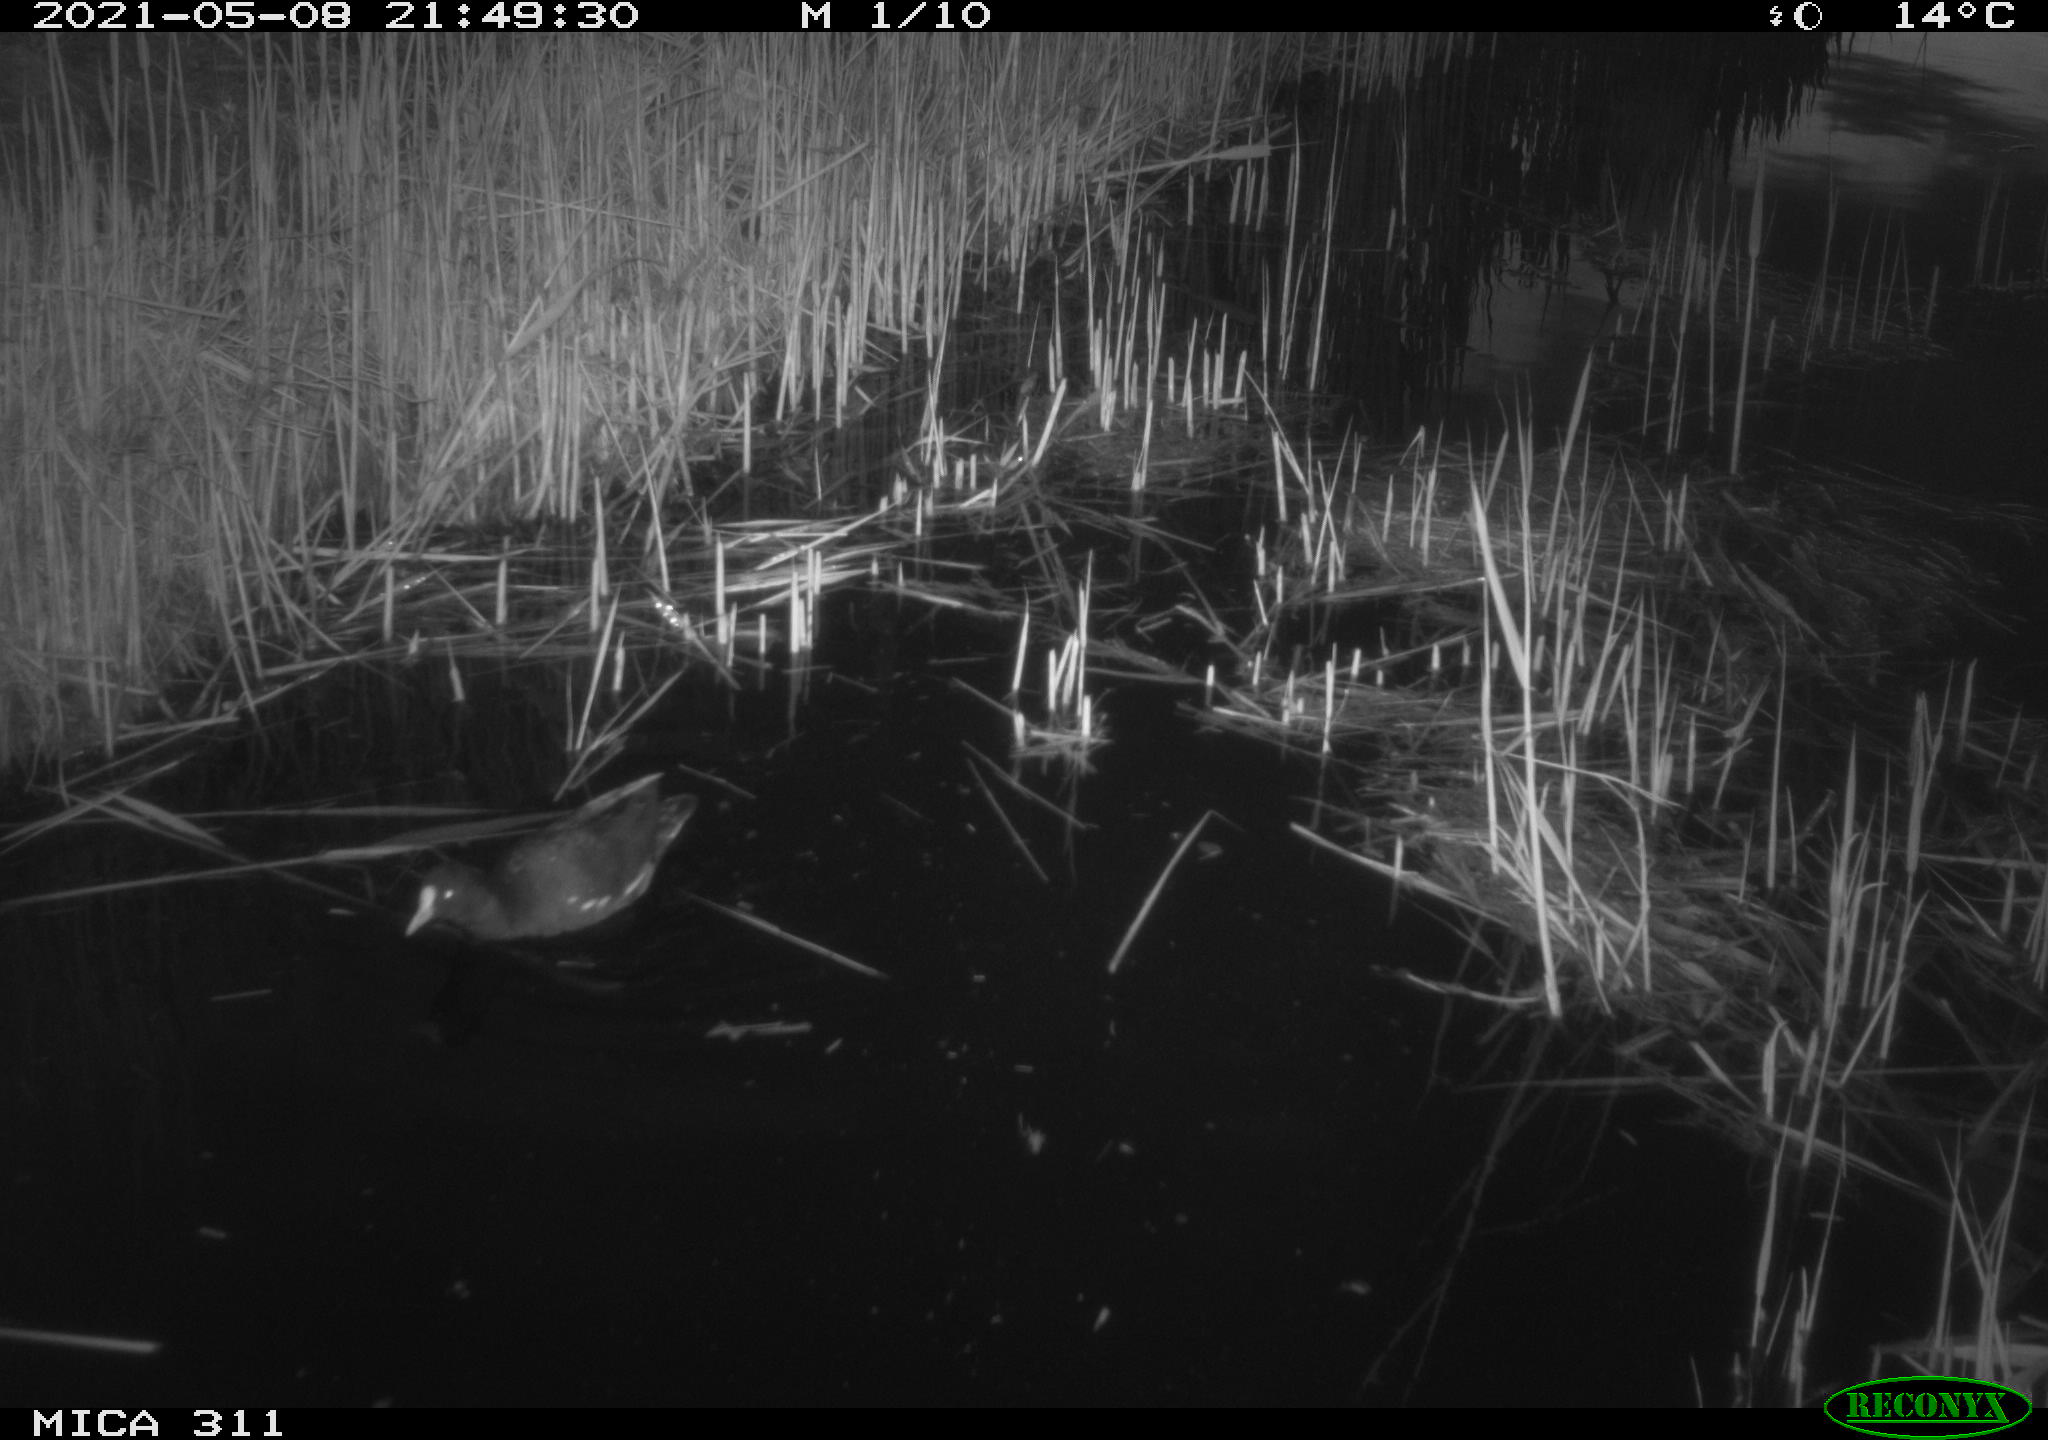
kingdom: Animalia
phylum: Chordata
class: Aves
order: Gruiformes
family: Rallidae
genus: Gallinula
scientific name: Gallinula chloropus
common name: Common moorhen
